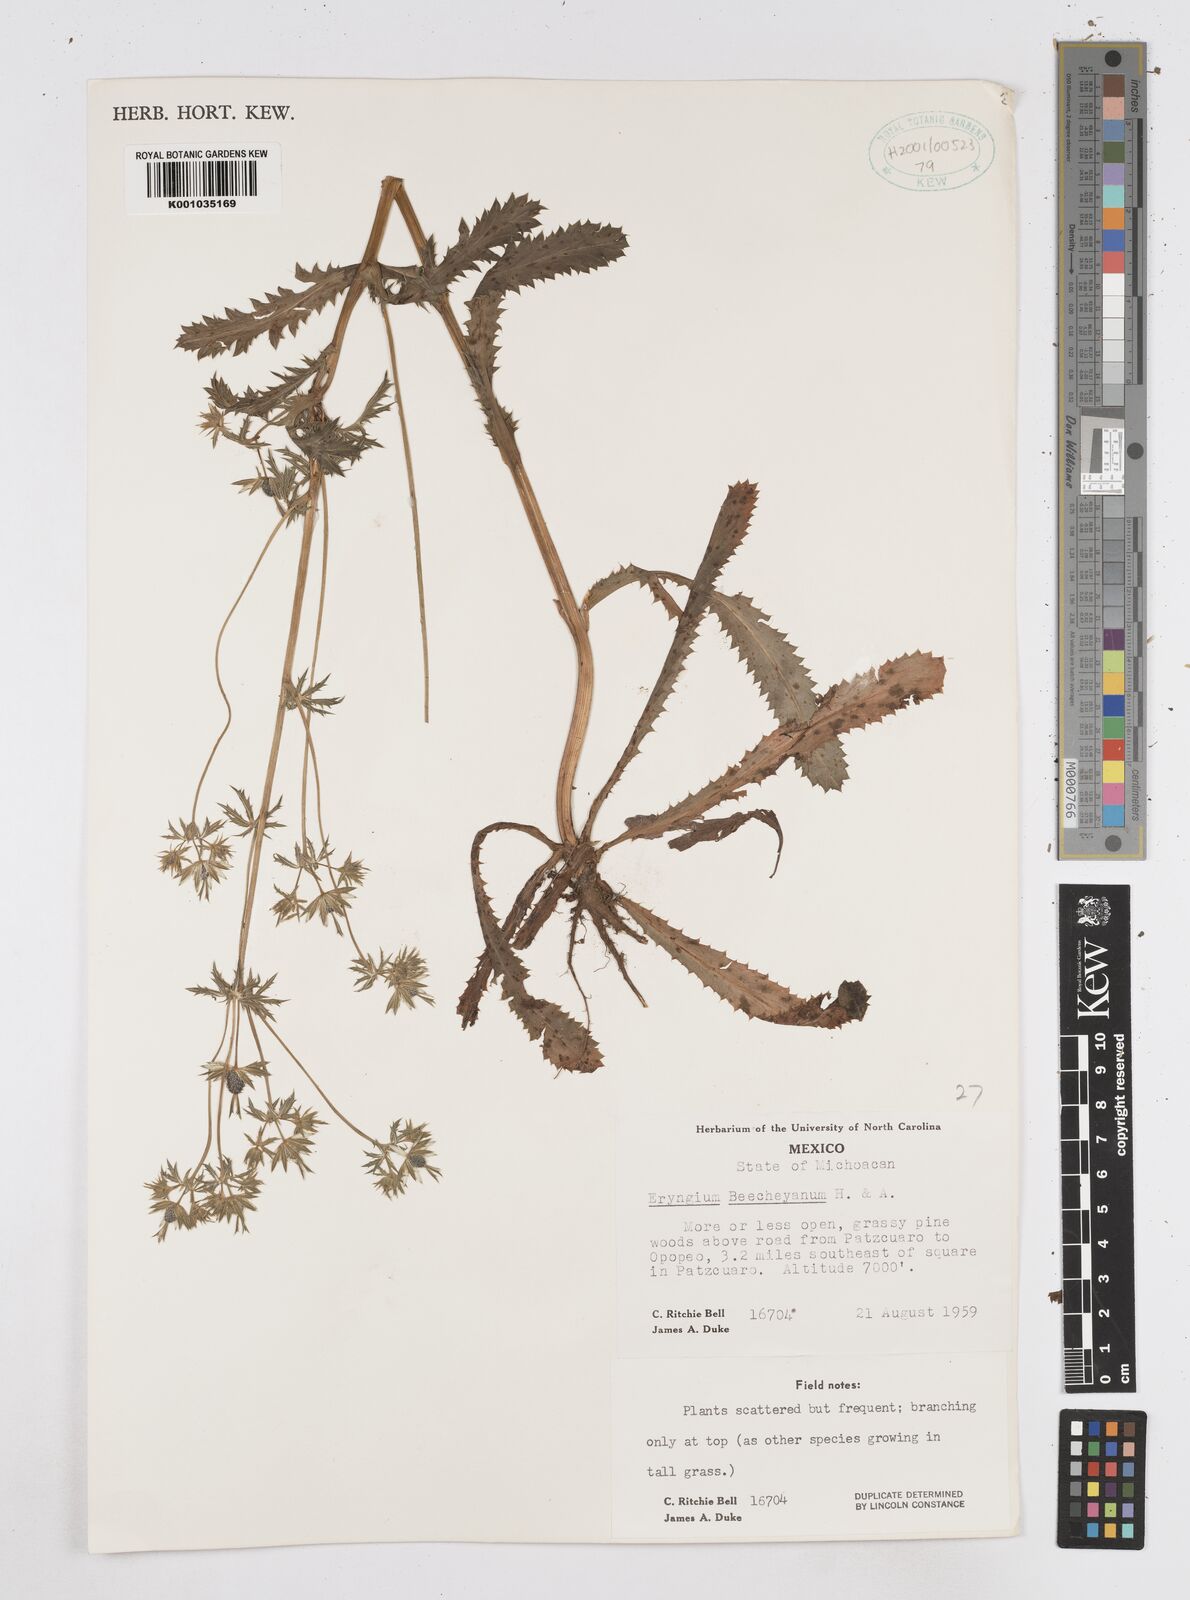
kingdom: Plantae
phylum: Tracheophyta
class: Magnoliopsida
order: Apiales
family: Apiaceae
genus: Eryngium
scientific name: Eryngium beecheyanum
